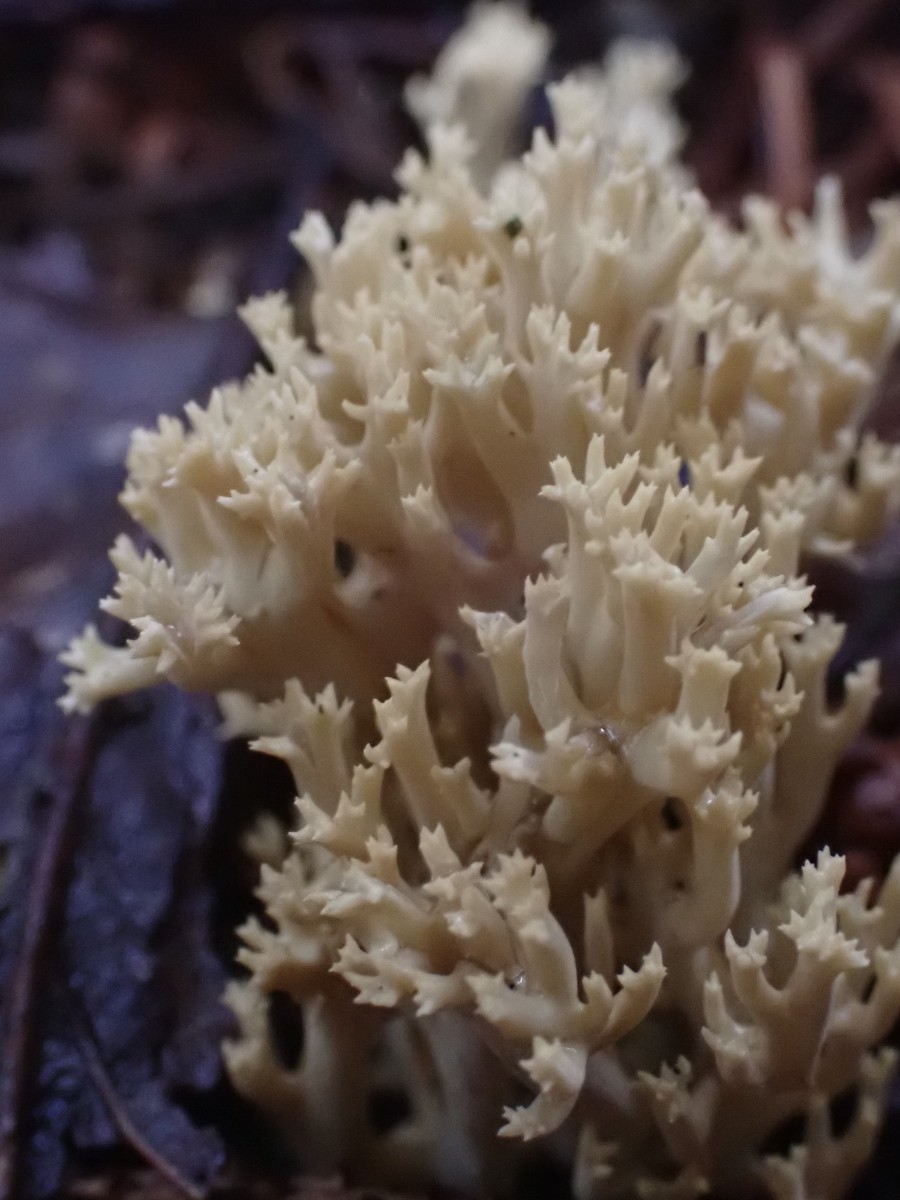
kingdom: Fungi
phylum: Basidiomycota
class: Agaricomycetes
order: Gomphales
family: Gomphaceae
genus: Phaeoclavulina
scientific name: Phaeoclavulina eumorpha
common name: gran-koralsvamp
